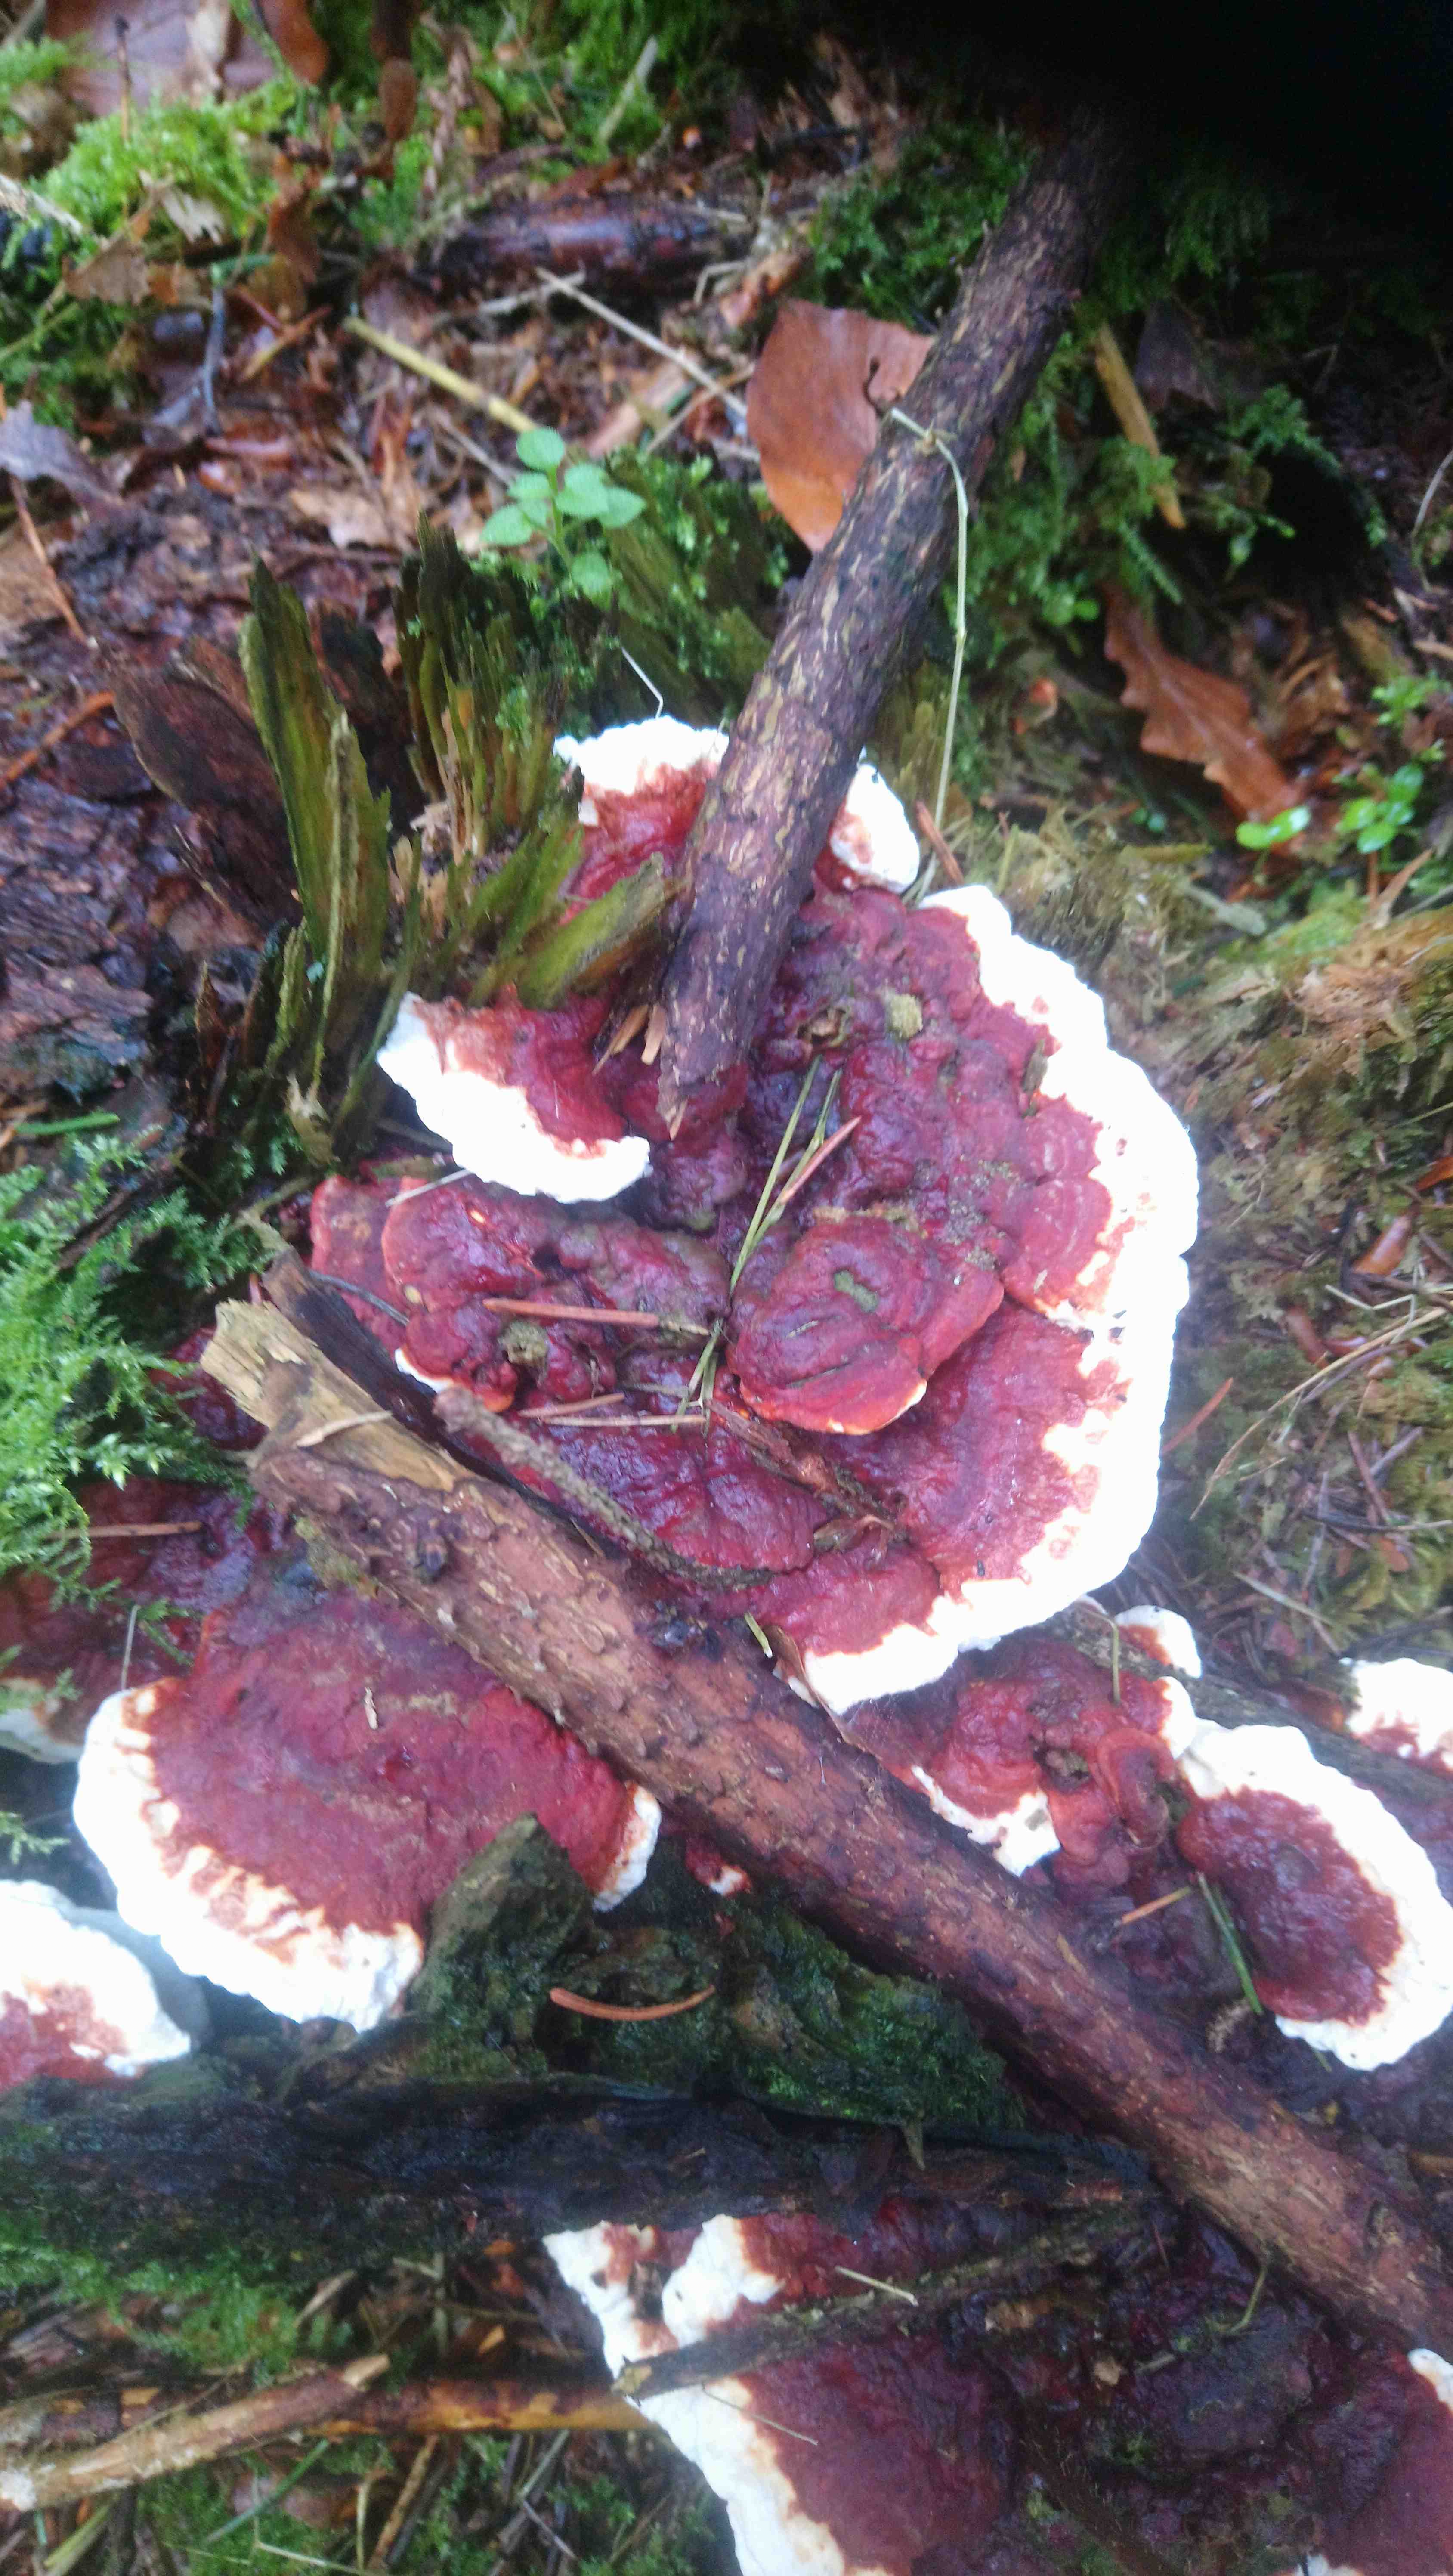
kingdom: Fungi
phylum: Basidiomycota
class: Agaricomycetes
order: Russulales
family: Bondarzewiaceae
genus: Heterobasidion
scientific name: Heterobasidion annosum
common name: almindelig rodfordærver
